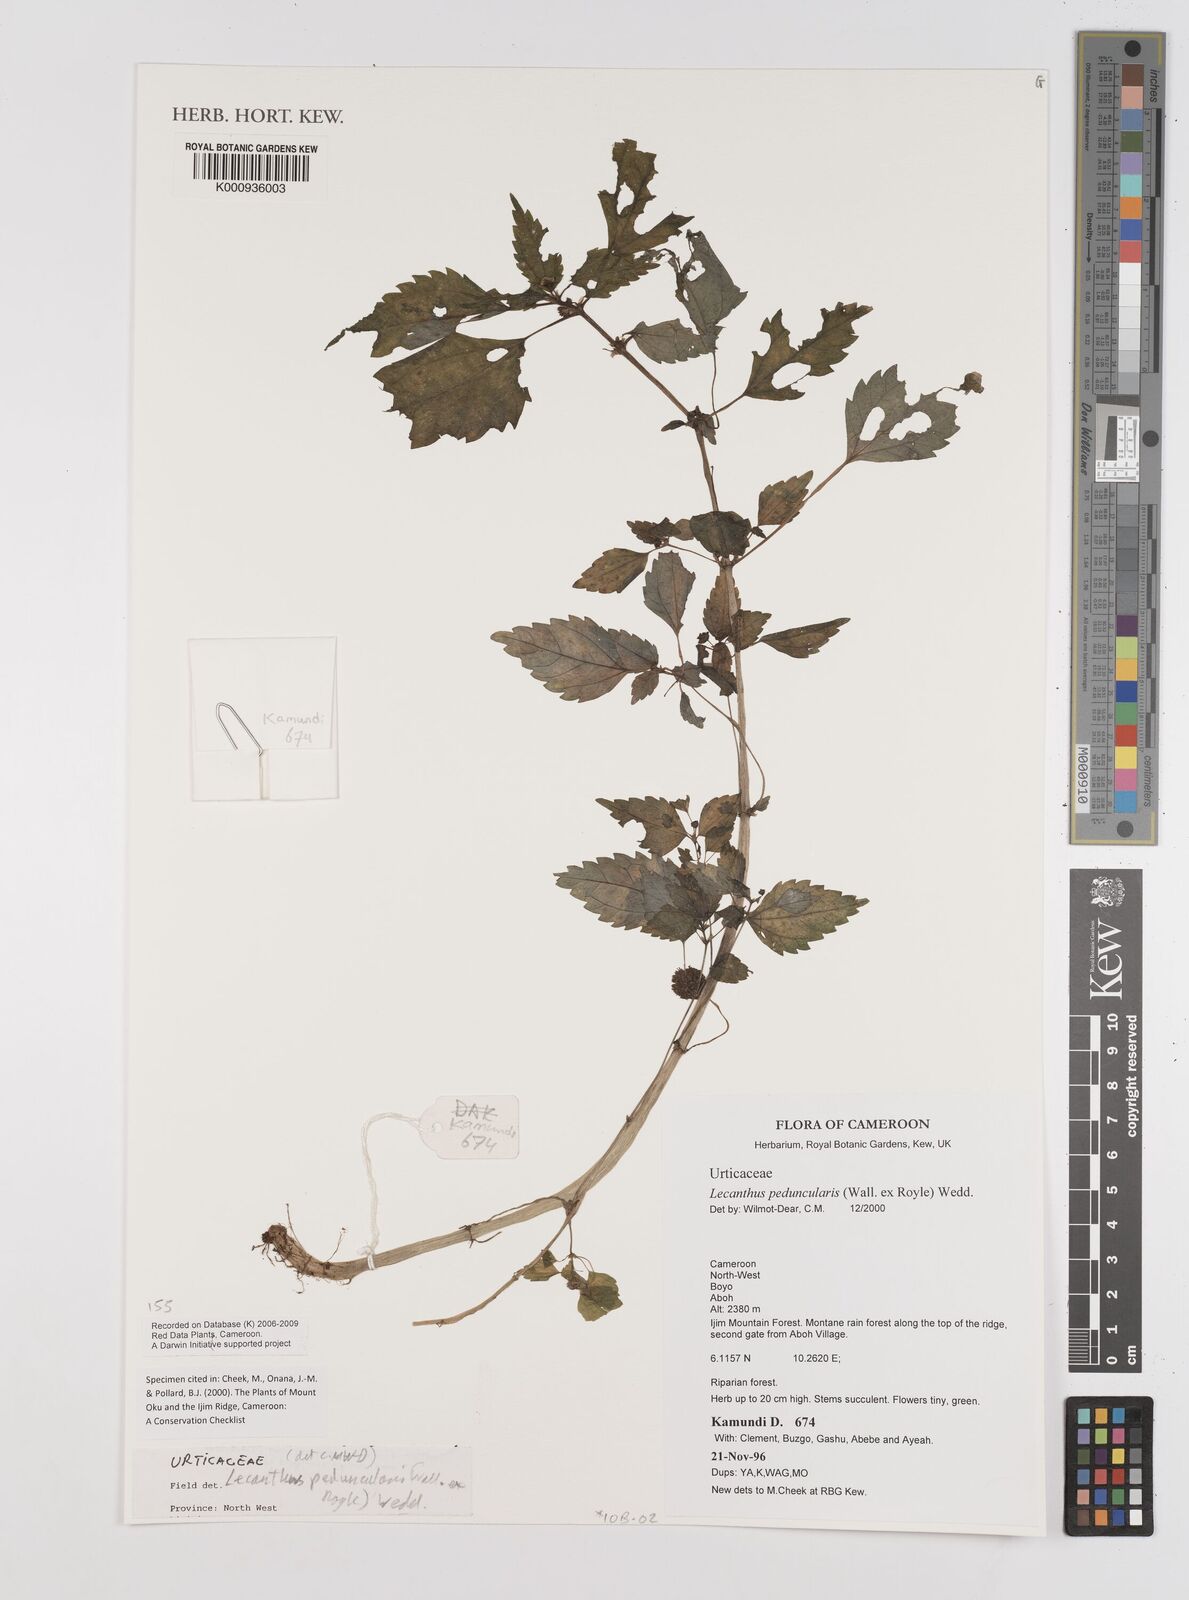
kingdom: Plantae
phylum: Tracheophyta
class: Magnoliopsida
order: Rosales
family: Urticaceae
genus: Lecanthus
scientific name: Lecanthus peduncularis
